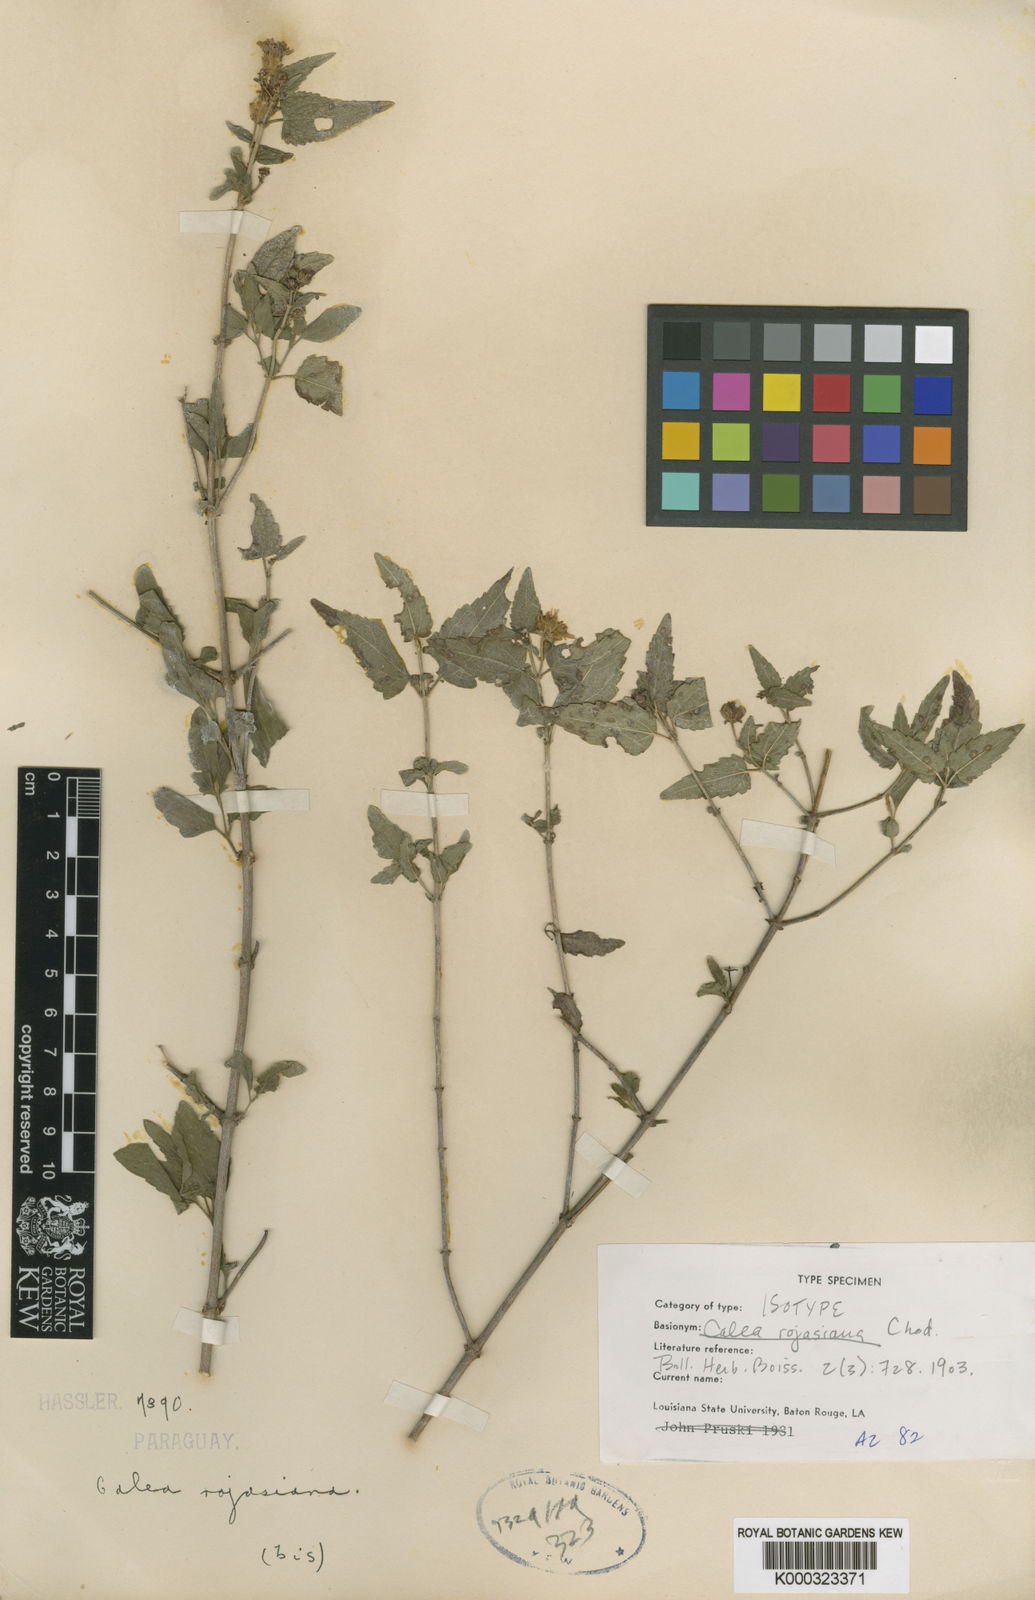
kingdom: Plantae
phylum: Tracheophyta
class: Magnoliopsida
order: Asterales
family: Asteraceae
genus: Calea
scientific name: Calea clematidea
